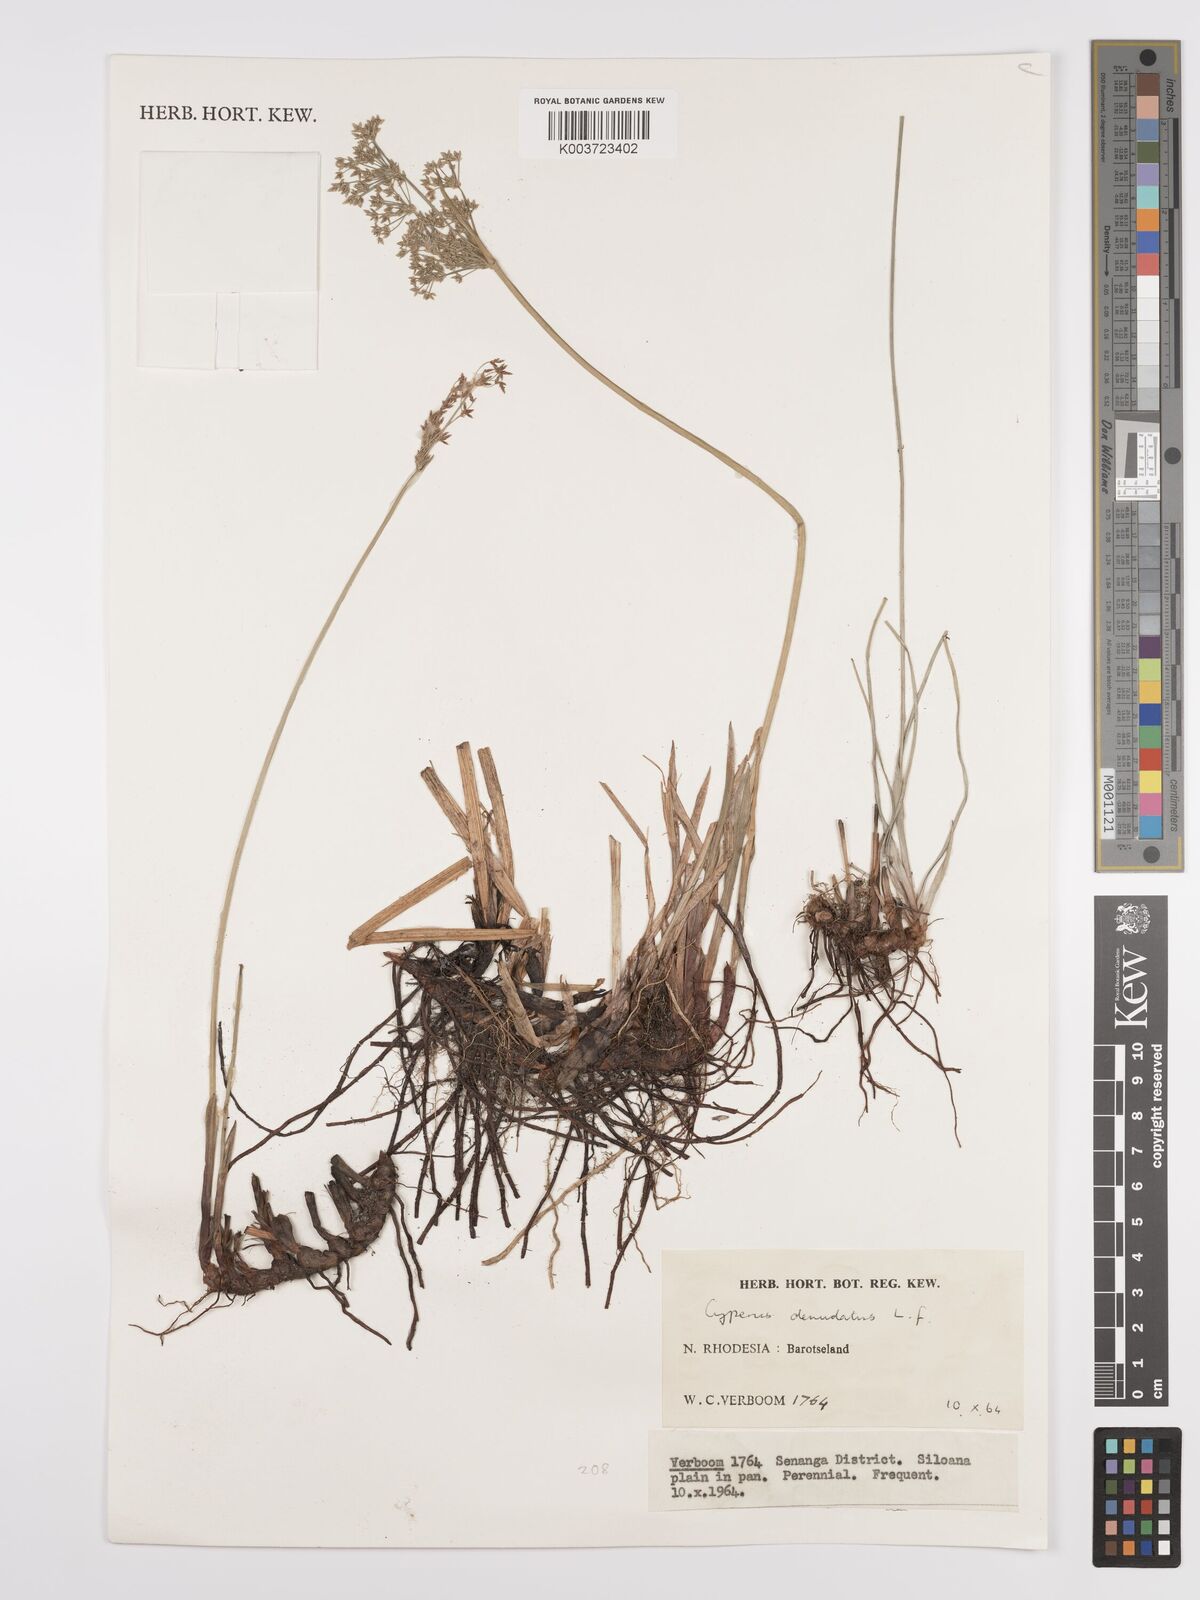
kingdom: Plantae
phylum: Tracheophyta
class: Liliopsida
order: Poales
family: Cyperaceae
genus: Cyperus
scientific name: Cyperus denudatus
